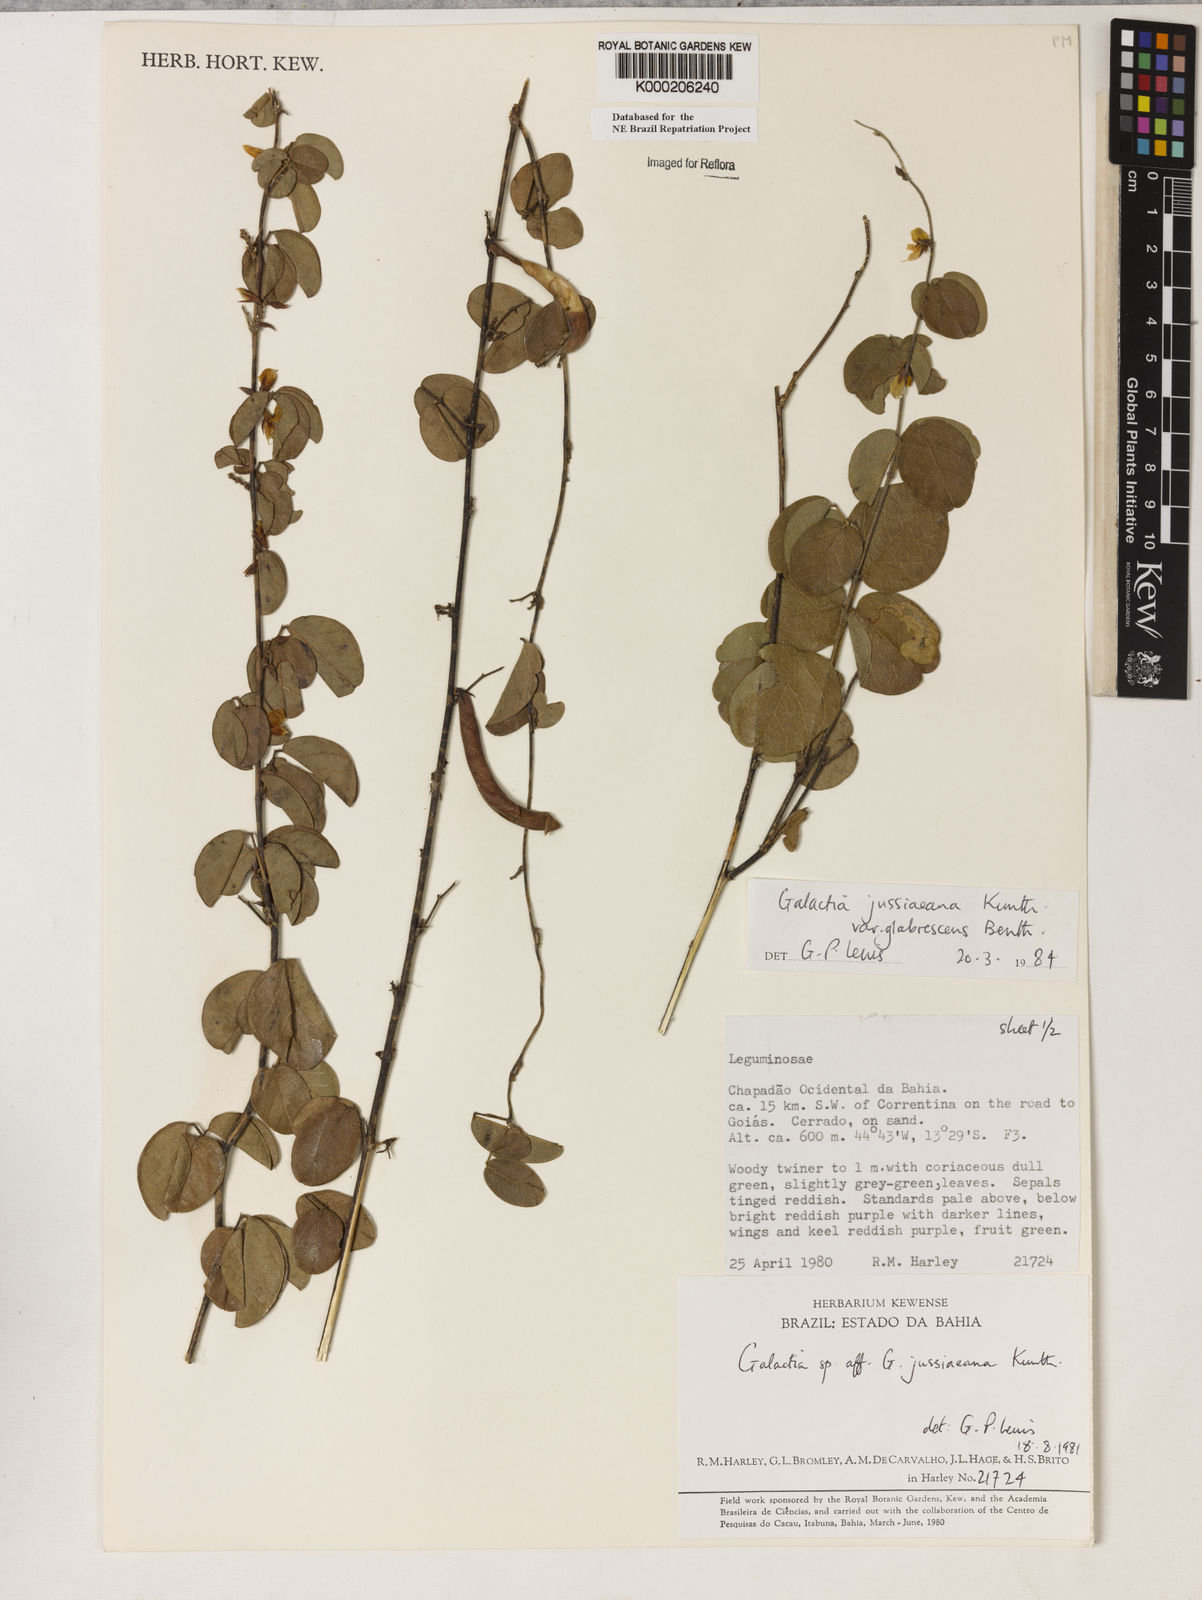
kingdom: Plantae
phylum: Tracheophyta
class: Magnoliopsida
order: Fabales
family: Fabaceae
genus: Galactia
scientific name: Galactia jussiaeana
